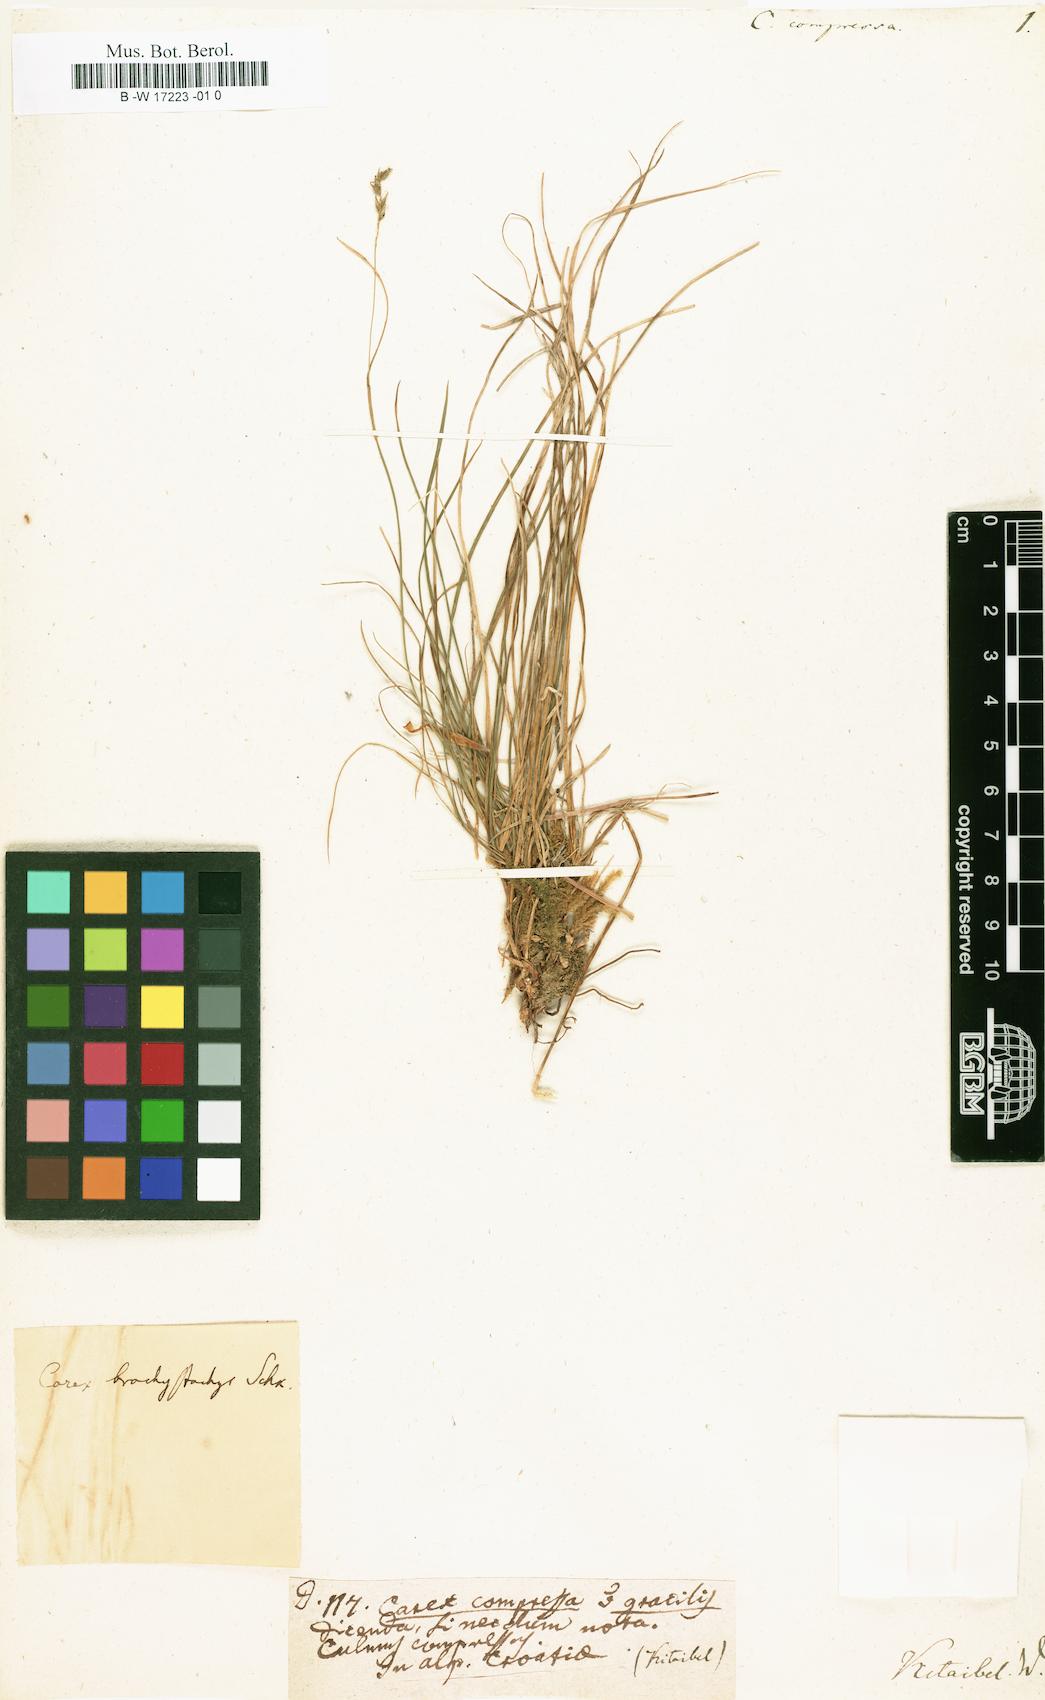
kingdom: Plantae
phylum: Tracheophyta
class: Liliopsida
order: Poales
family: Cyperaceae
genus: Carex
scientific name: Carex brachystachys
